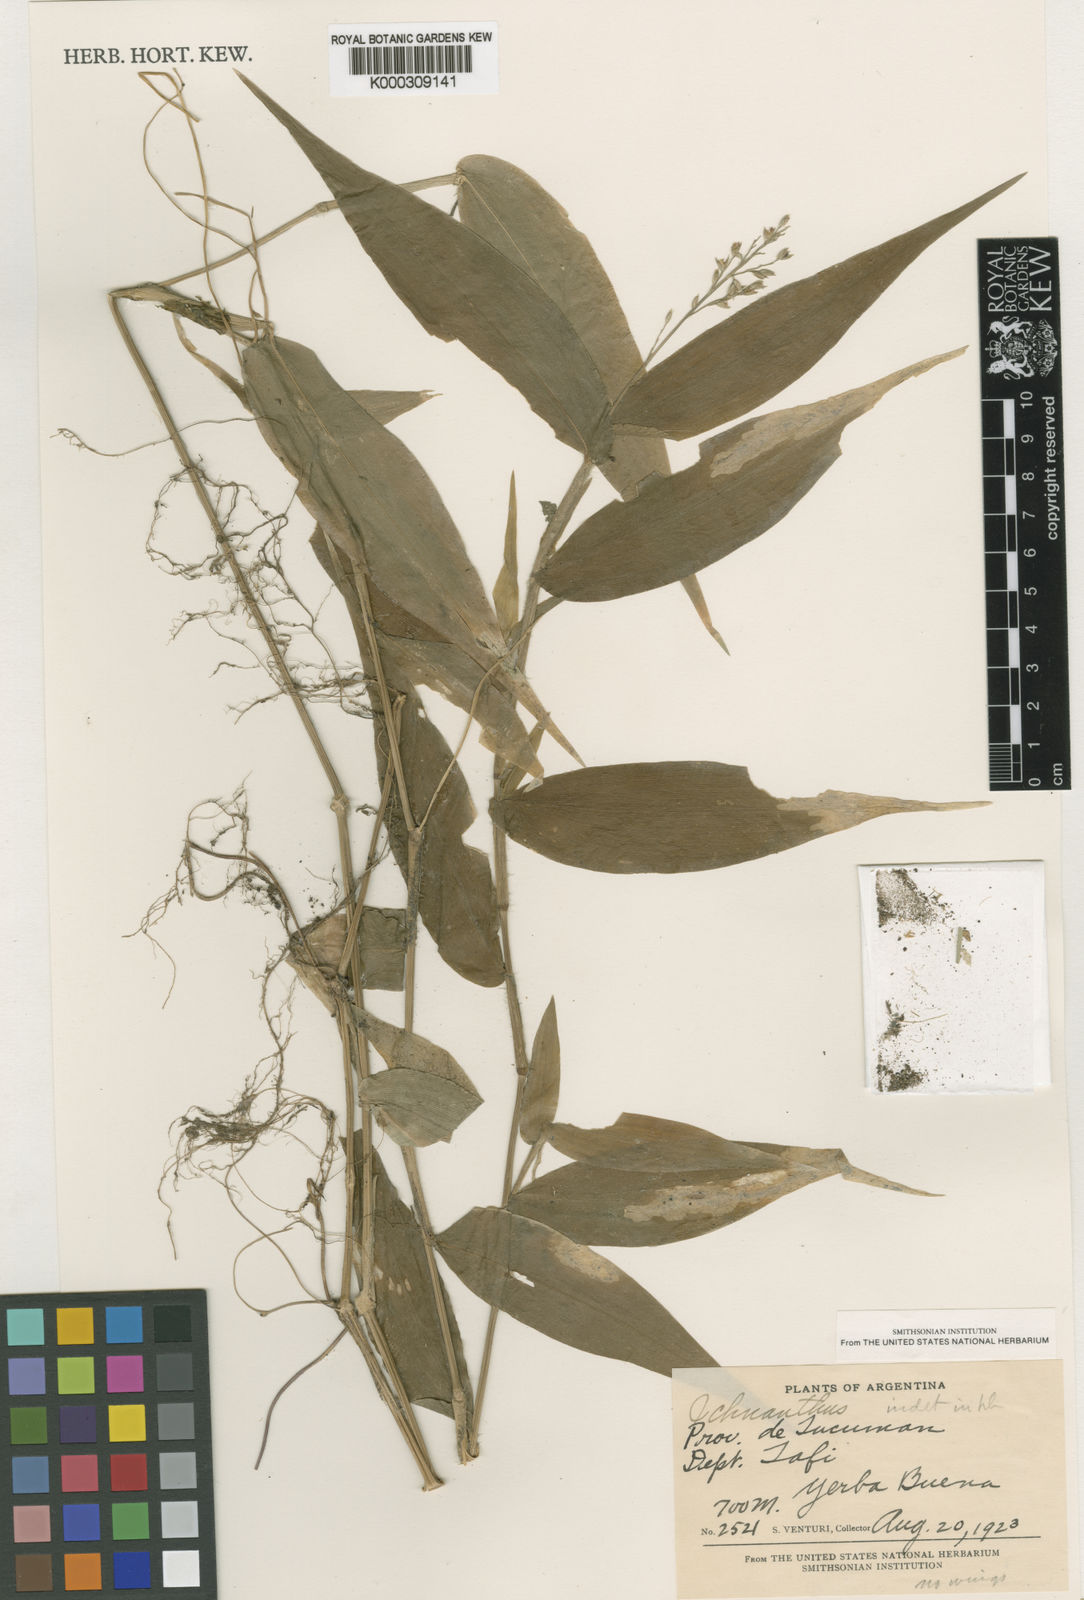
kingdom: Plantae
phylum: Tracheophyta
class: Liliopsida
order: Poales
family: Poaceae
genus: Ichnanthus
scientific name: Ichnanthus
